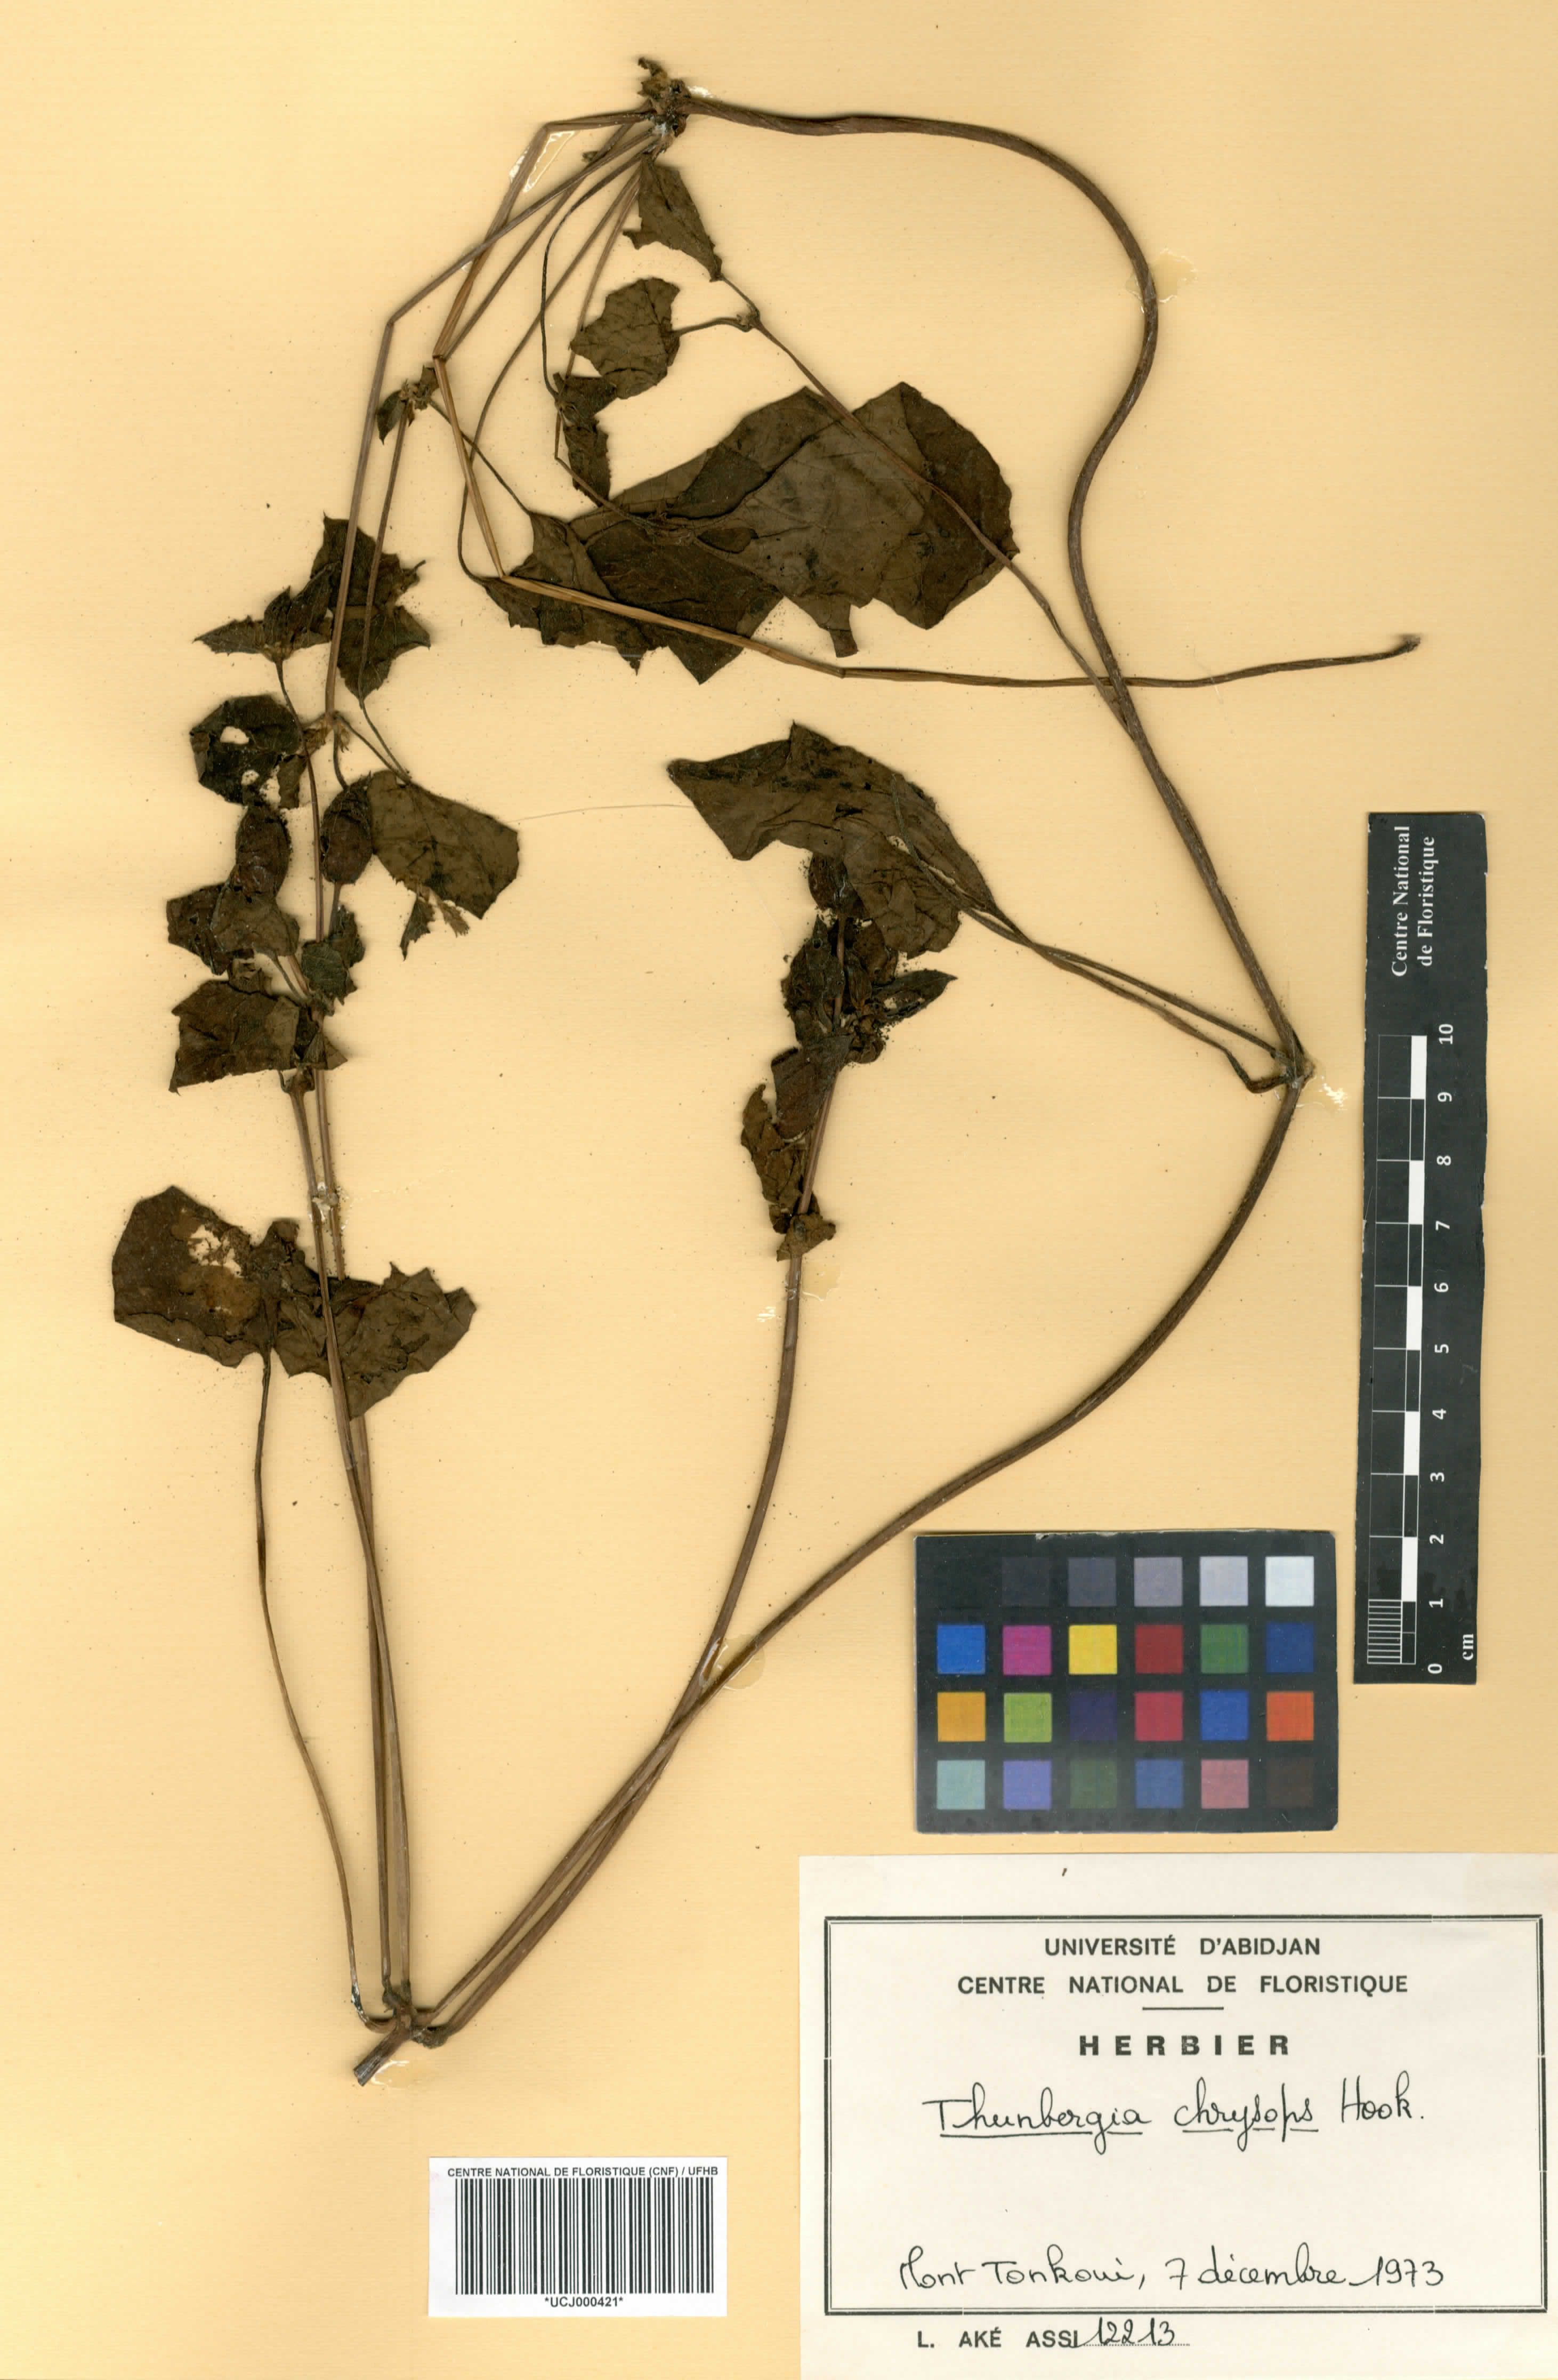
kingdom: Plantae
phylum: Tracheophyta
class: Magnoliopsida
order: Lamiales
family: Acanthaceae
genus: Thunbergia
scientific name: Thunbergia chrysops
